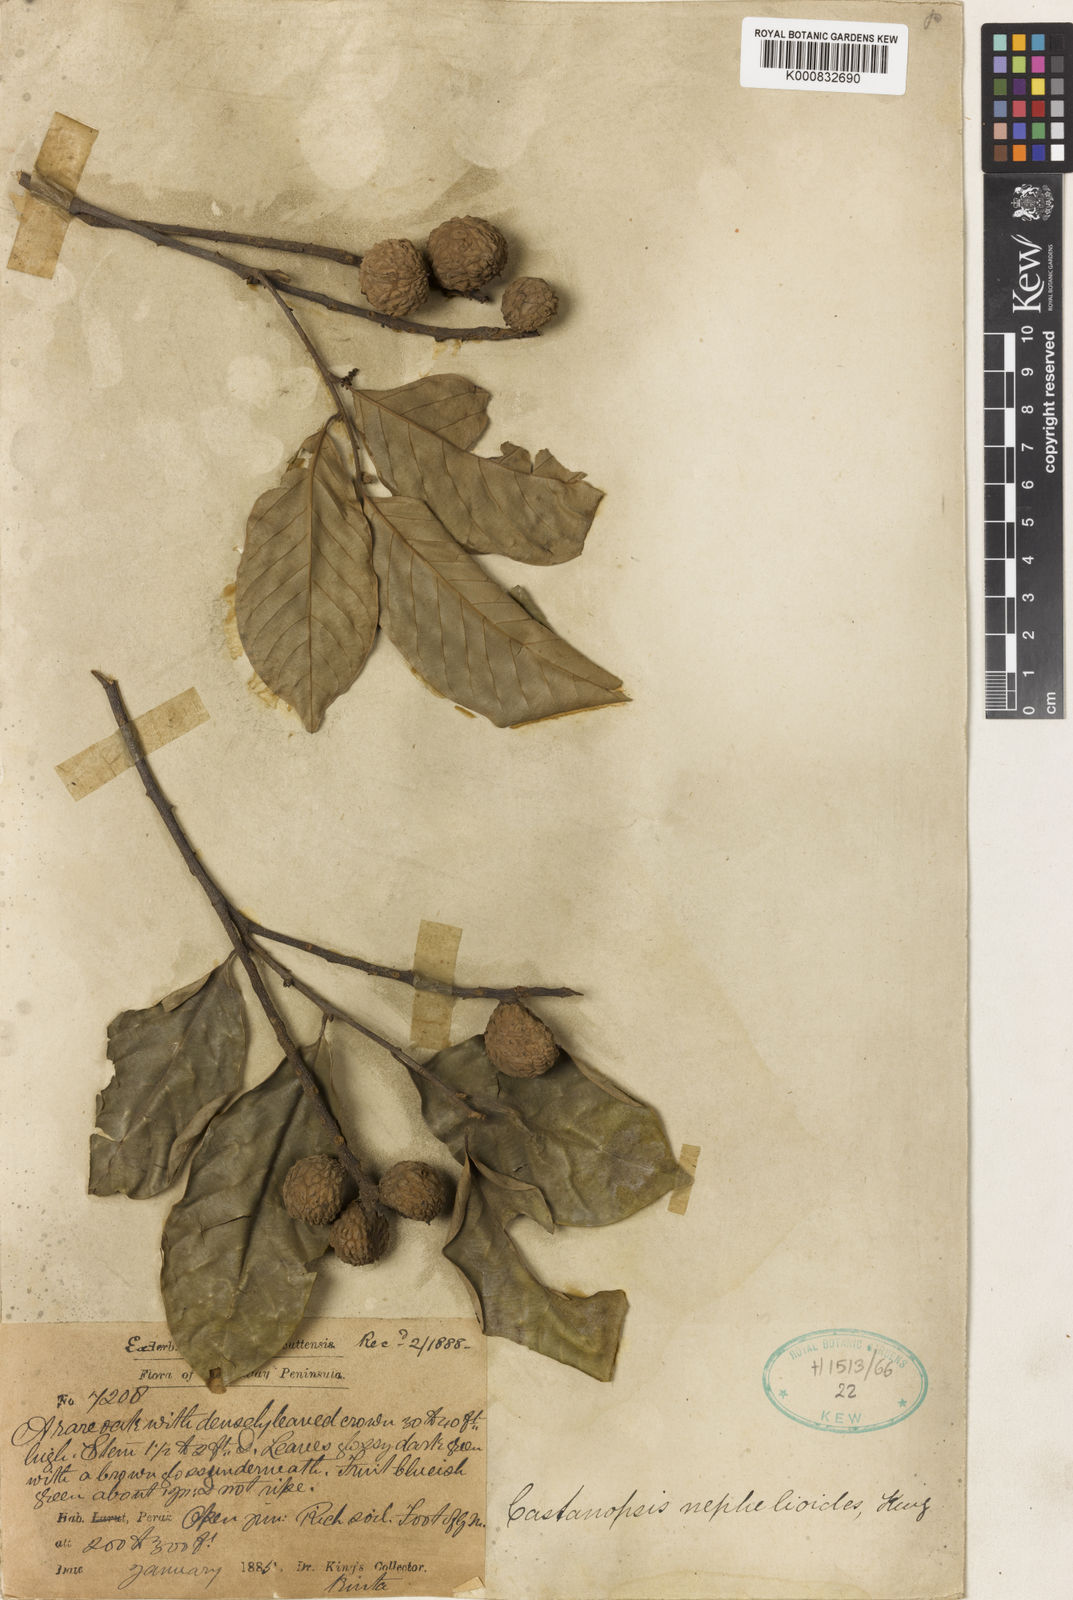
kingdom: Plantae
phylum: Tracheophyta
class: Magnoliopsida
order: Fagales
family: Fagaceae
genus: Castanopsis
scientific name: Castanopsis nephelioides
